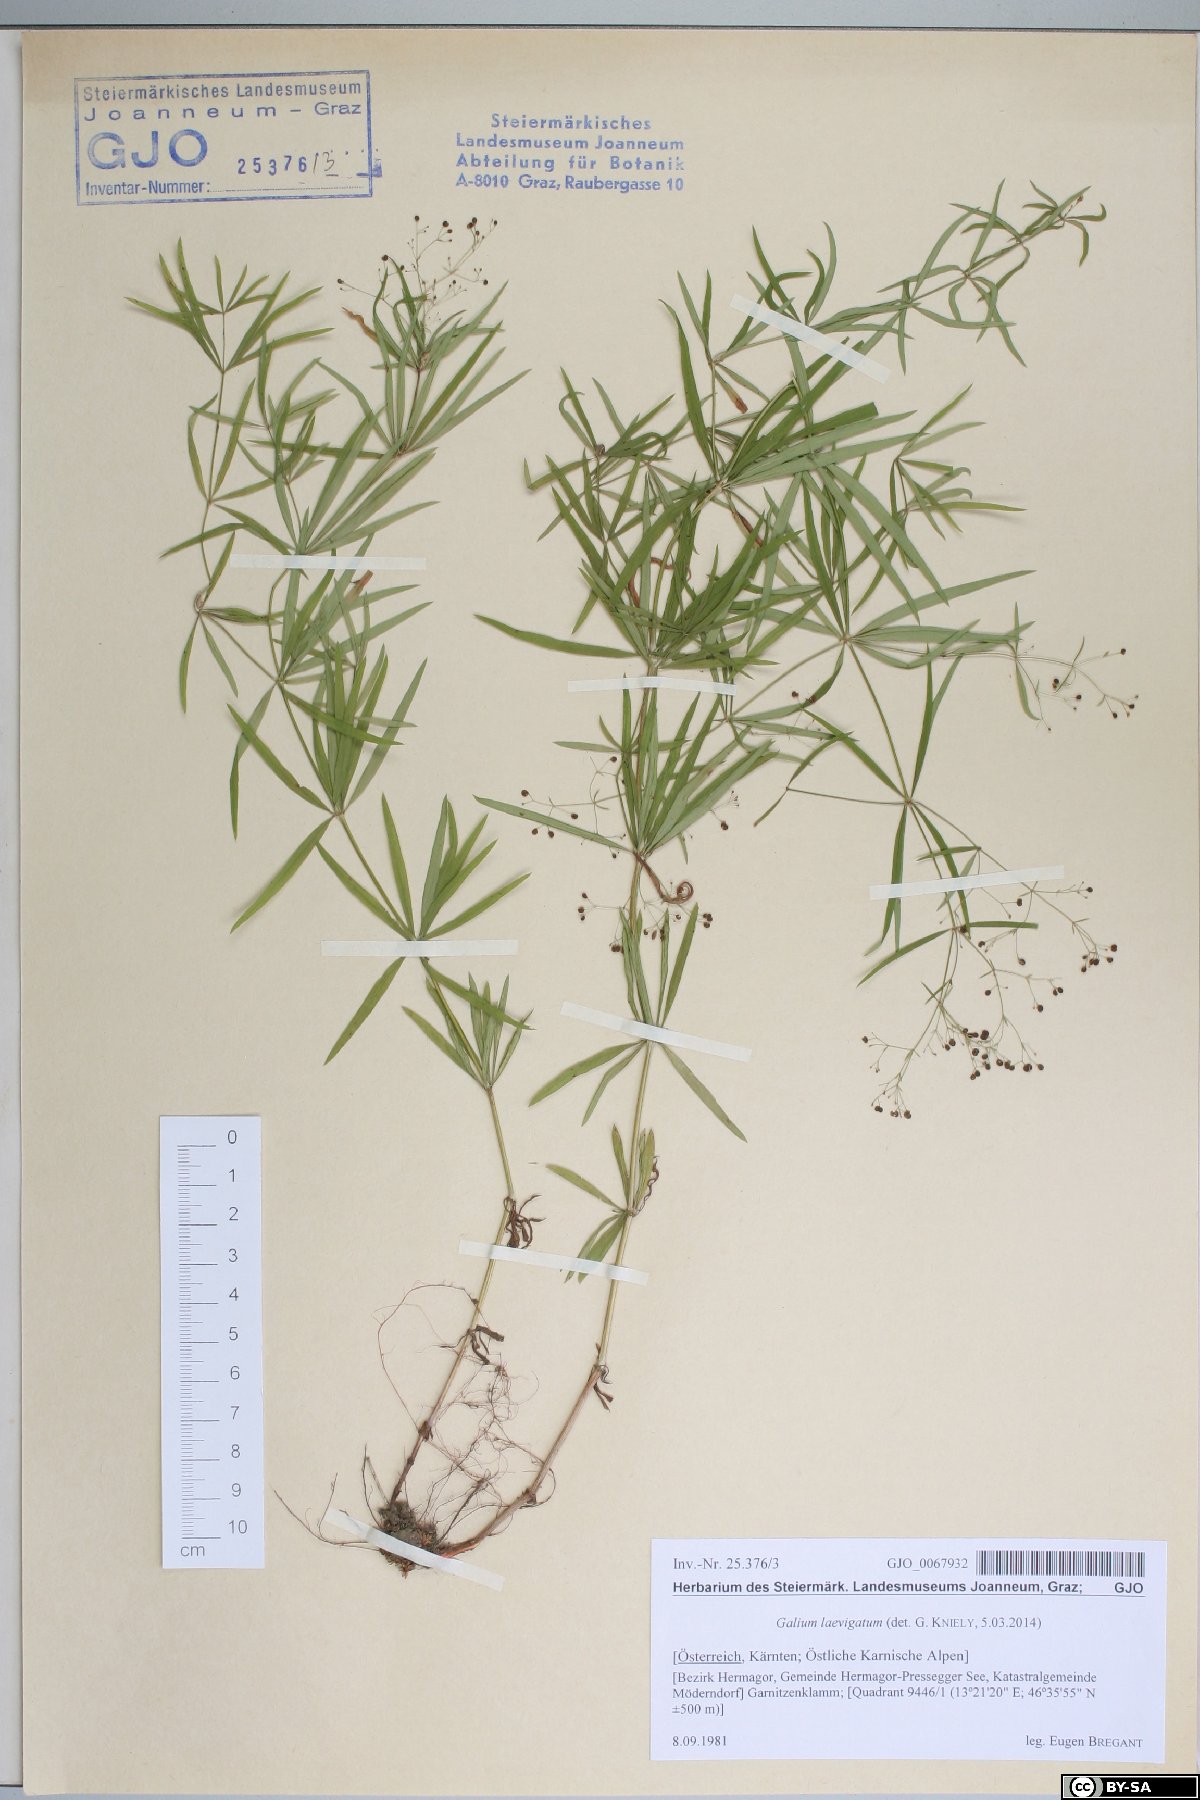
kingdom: Plantae
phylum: Tracheophyta
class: Magnoliopsida
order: Gentianales
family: Rubiaceae
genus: Galium
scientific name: Galium laevigatum
